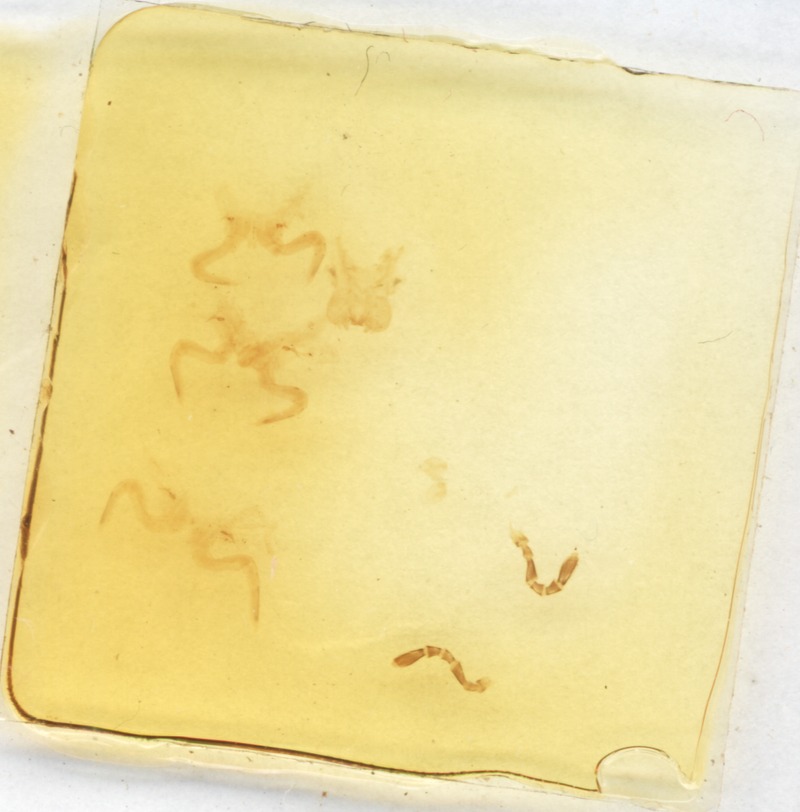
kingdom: Animalia
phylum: Arthropoda
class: Diplopoda
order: Glomerida
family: Glomeridae
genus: Onychoglomeris
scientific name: Onychoglomeris castanea
